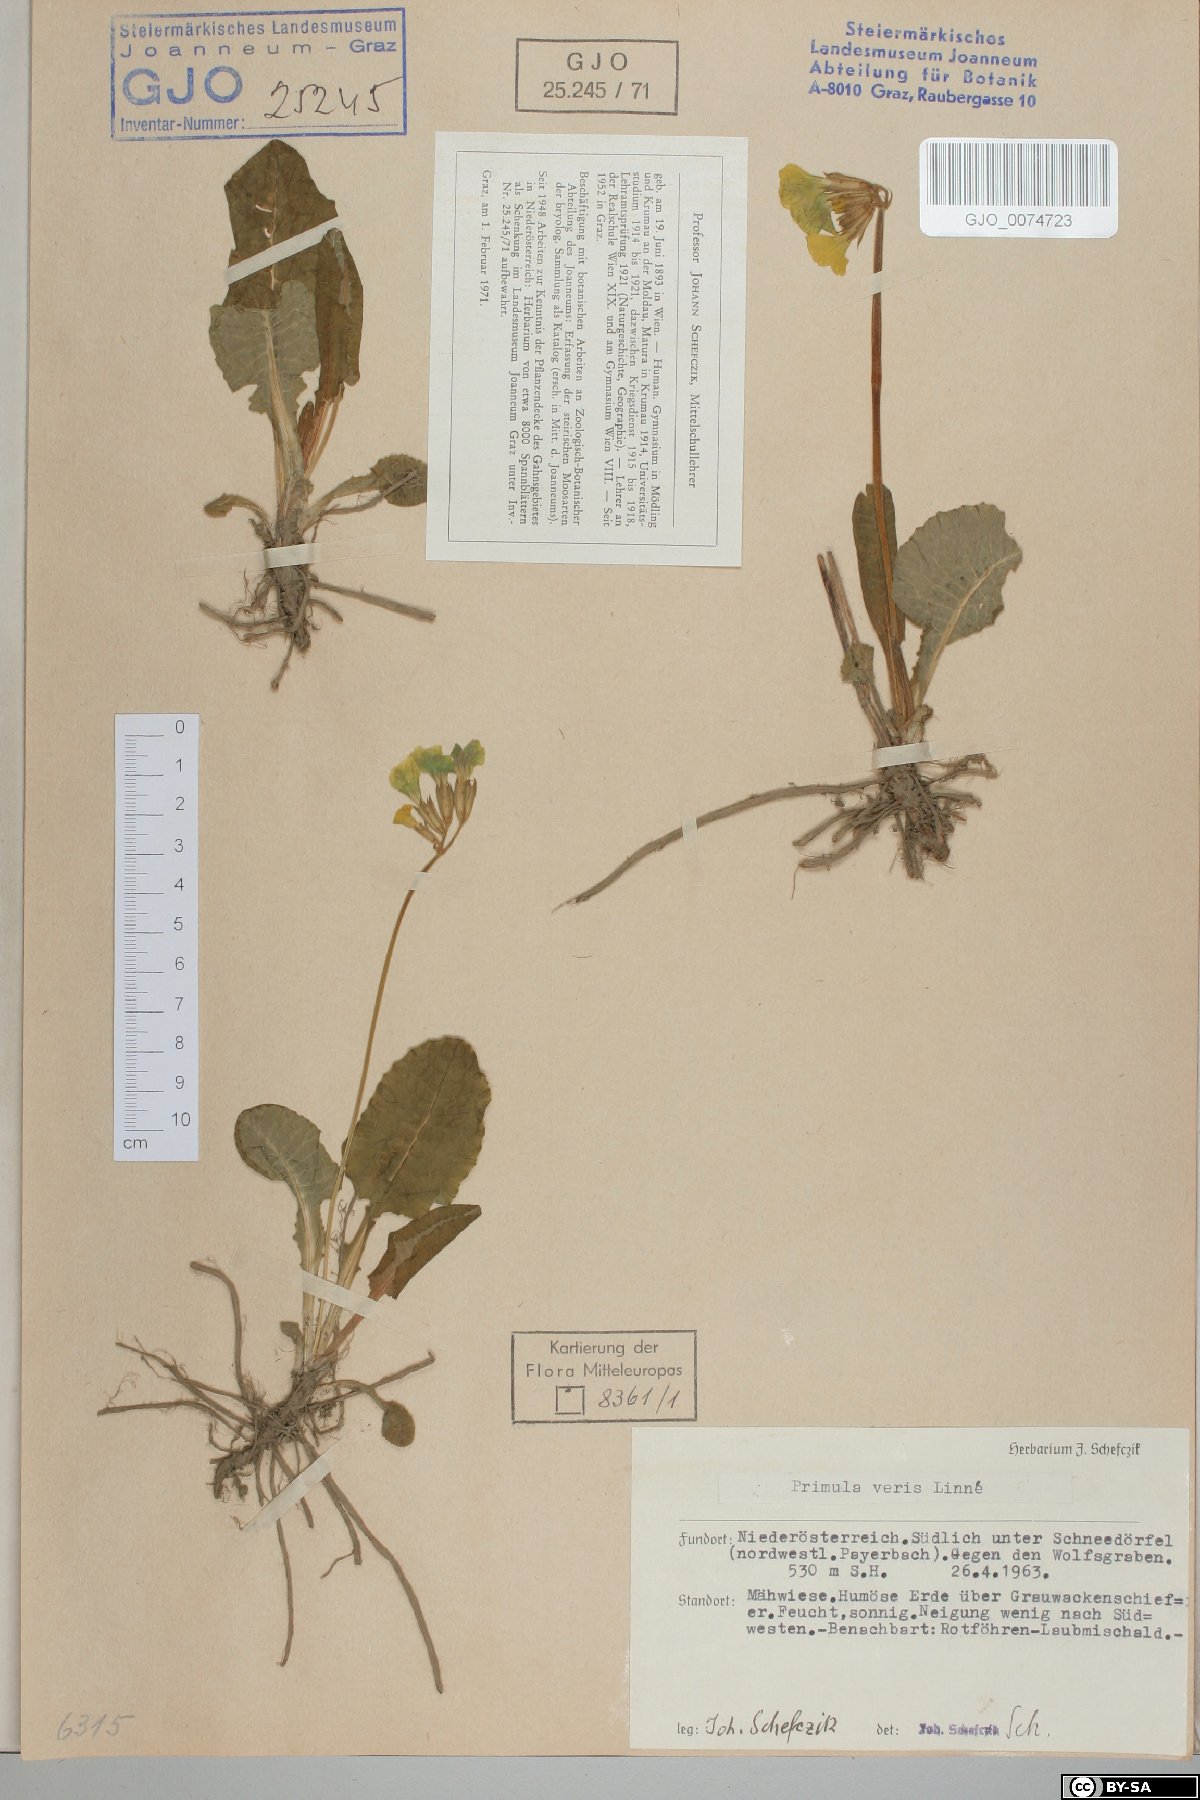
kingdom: Plantae
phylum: Tracheophyta
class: Magnoliopsida
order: Ericales
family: Primulaceae
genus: Primula
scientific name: Primula veris
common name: Cowslip
